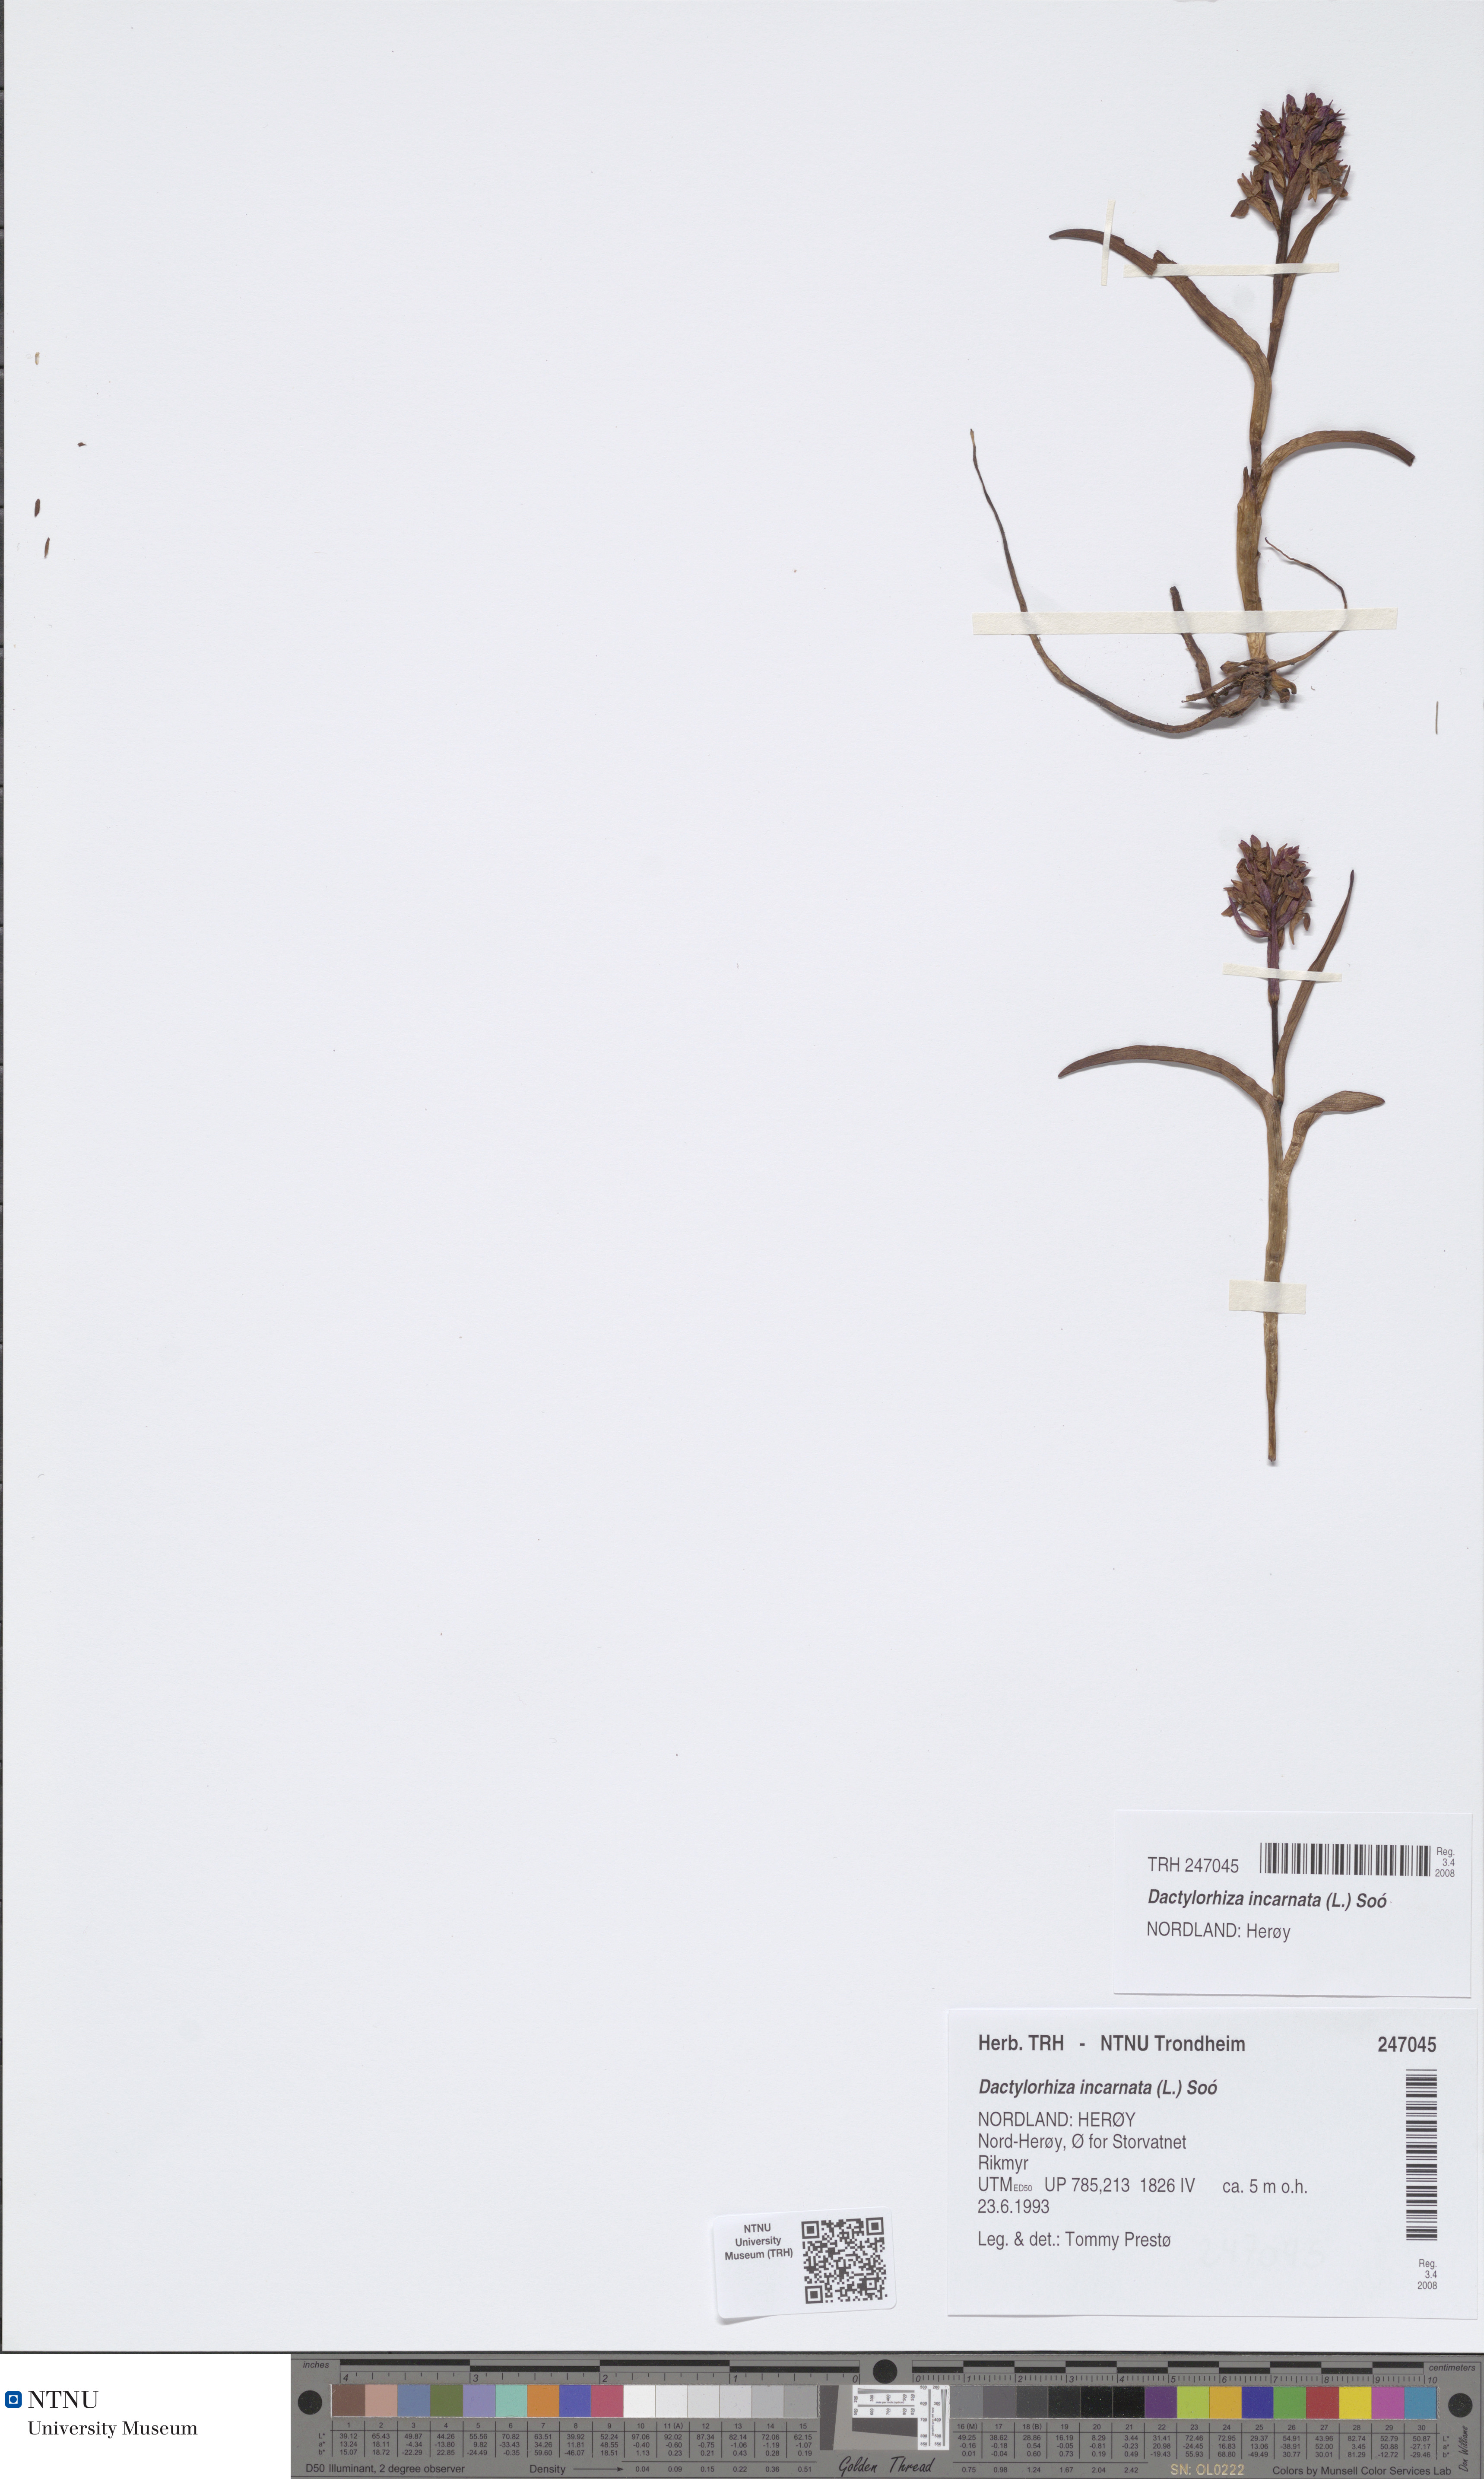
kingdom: Plantae
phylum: Tracheophyta
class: Liliopsida
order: Asparagales
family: Orchidaceae
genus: Dactylorhiza
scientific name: Dactylorhiza incarnata
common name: Early marsh-orchid
